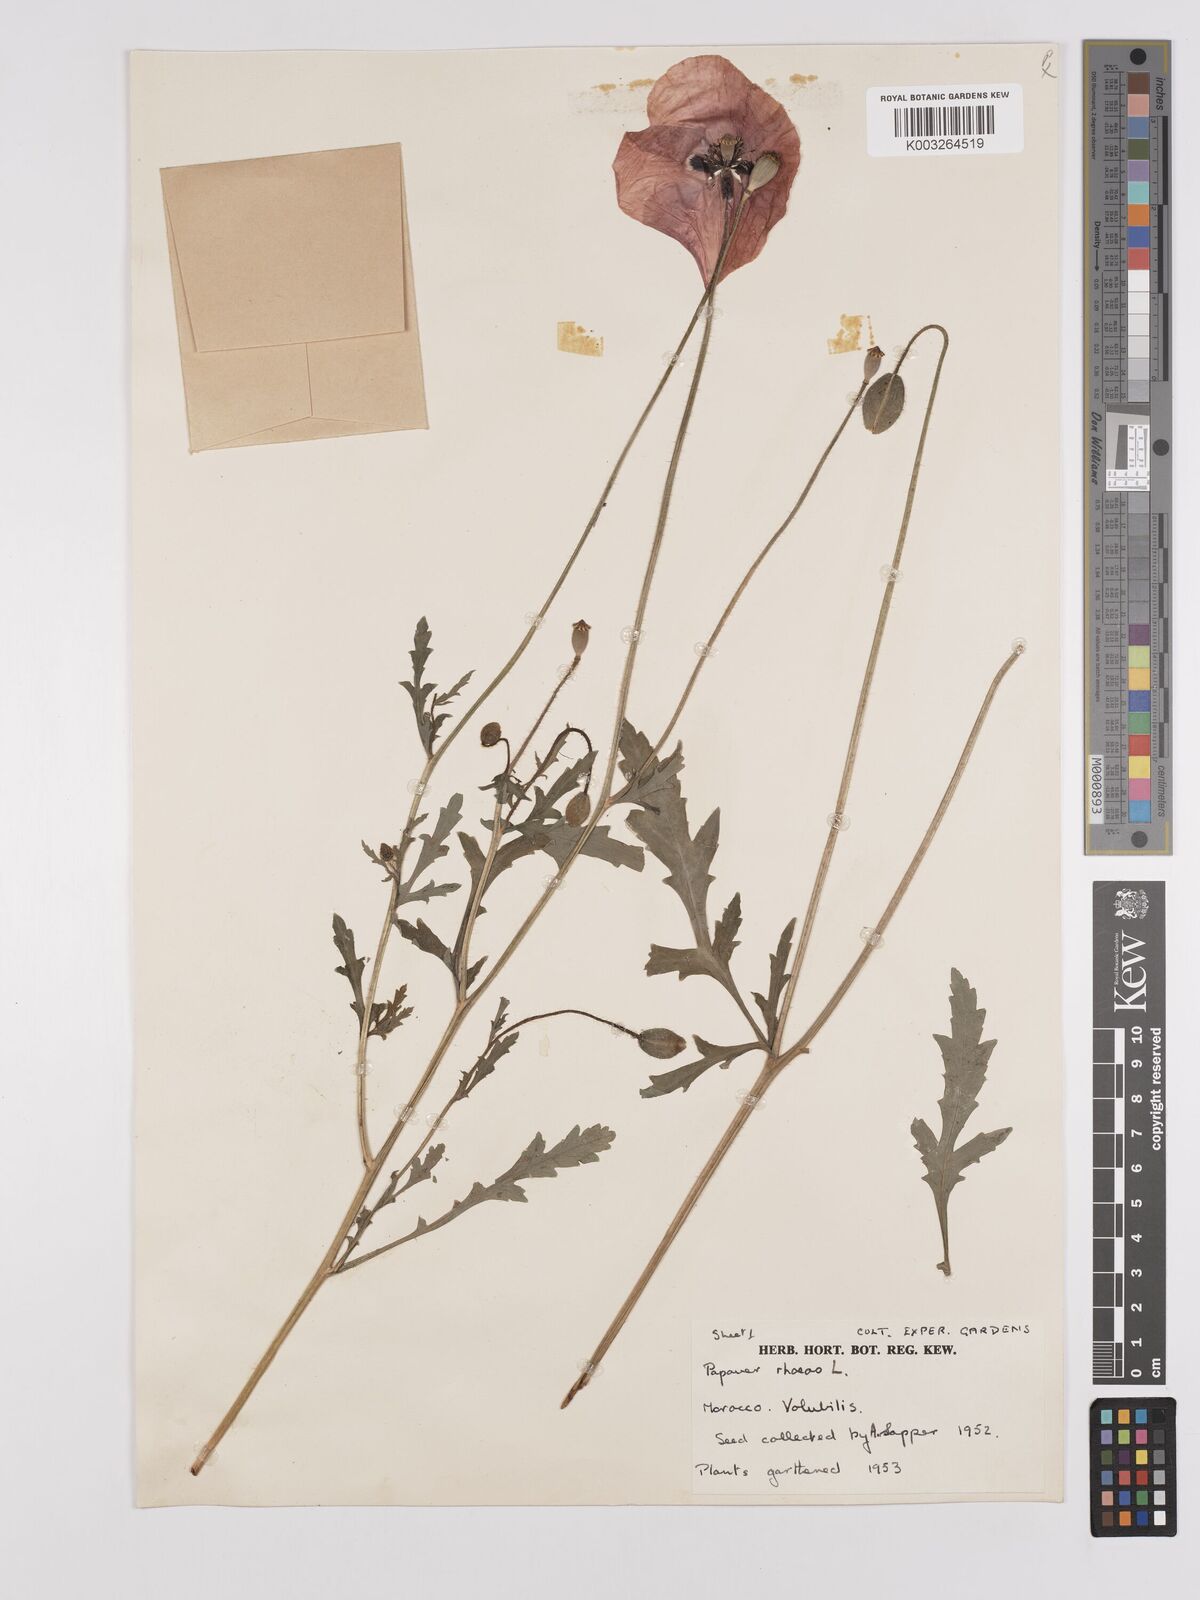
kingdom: Plantae
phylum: Tracheophyta
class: Magnoliopsida
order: Ranunculales
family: Papaveraceae
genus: Papaver
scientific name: Papaver rhoeas
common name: Corn poppy
